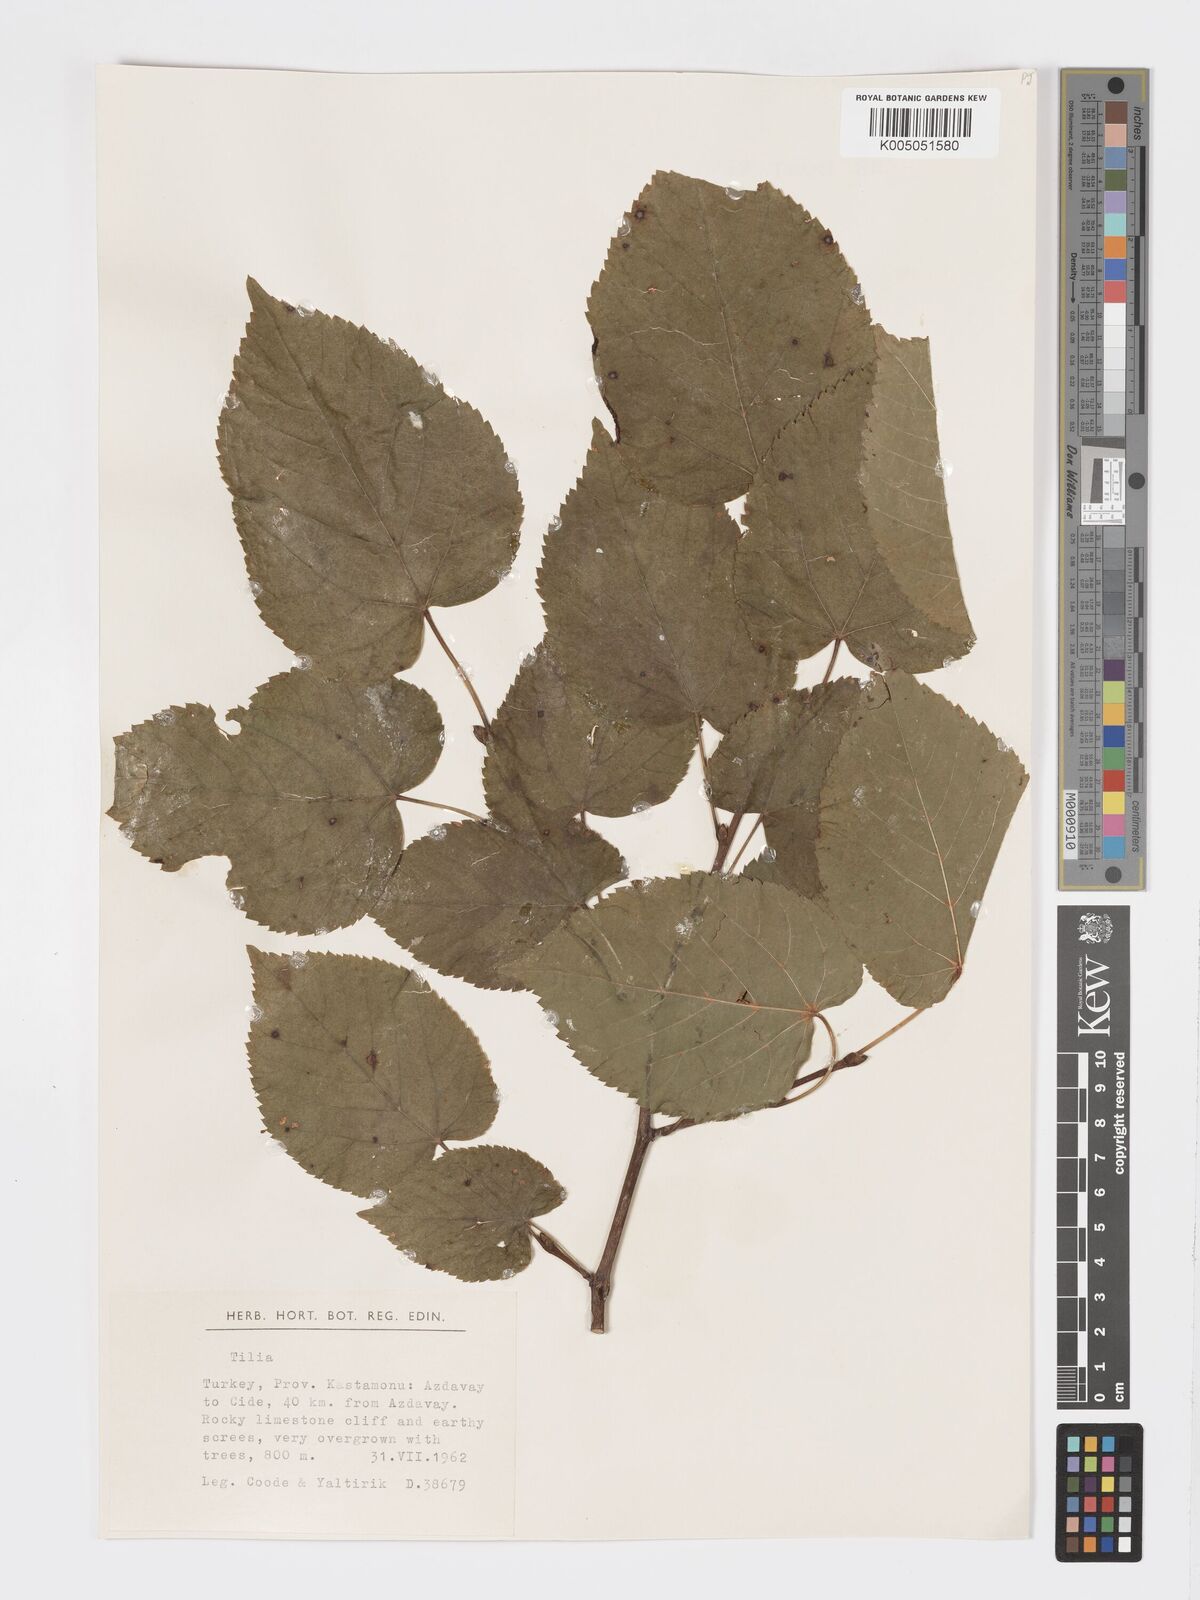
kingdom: Plantae
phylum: Tracheophyta
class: Magnoliopsida
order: Malvales
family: Malvaceae
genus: Tilia
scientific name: Tilia
